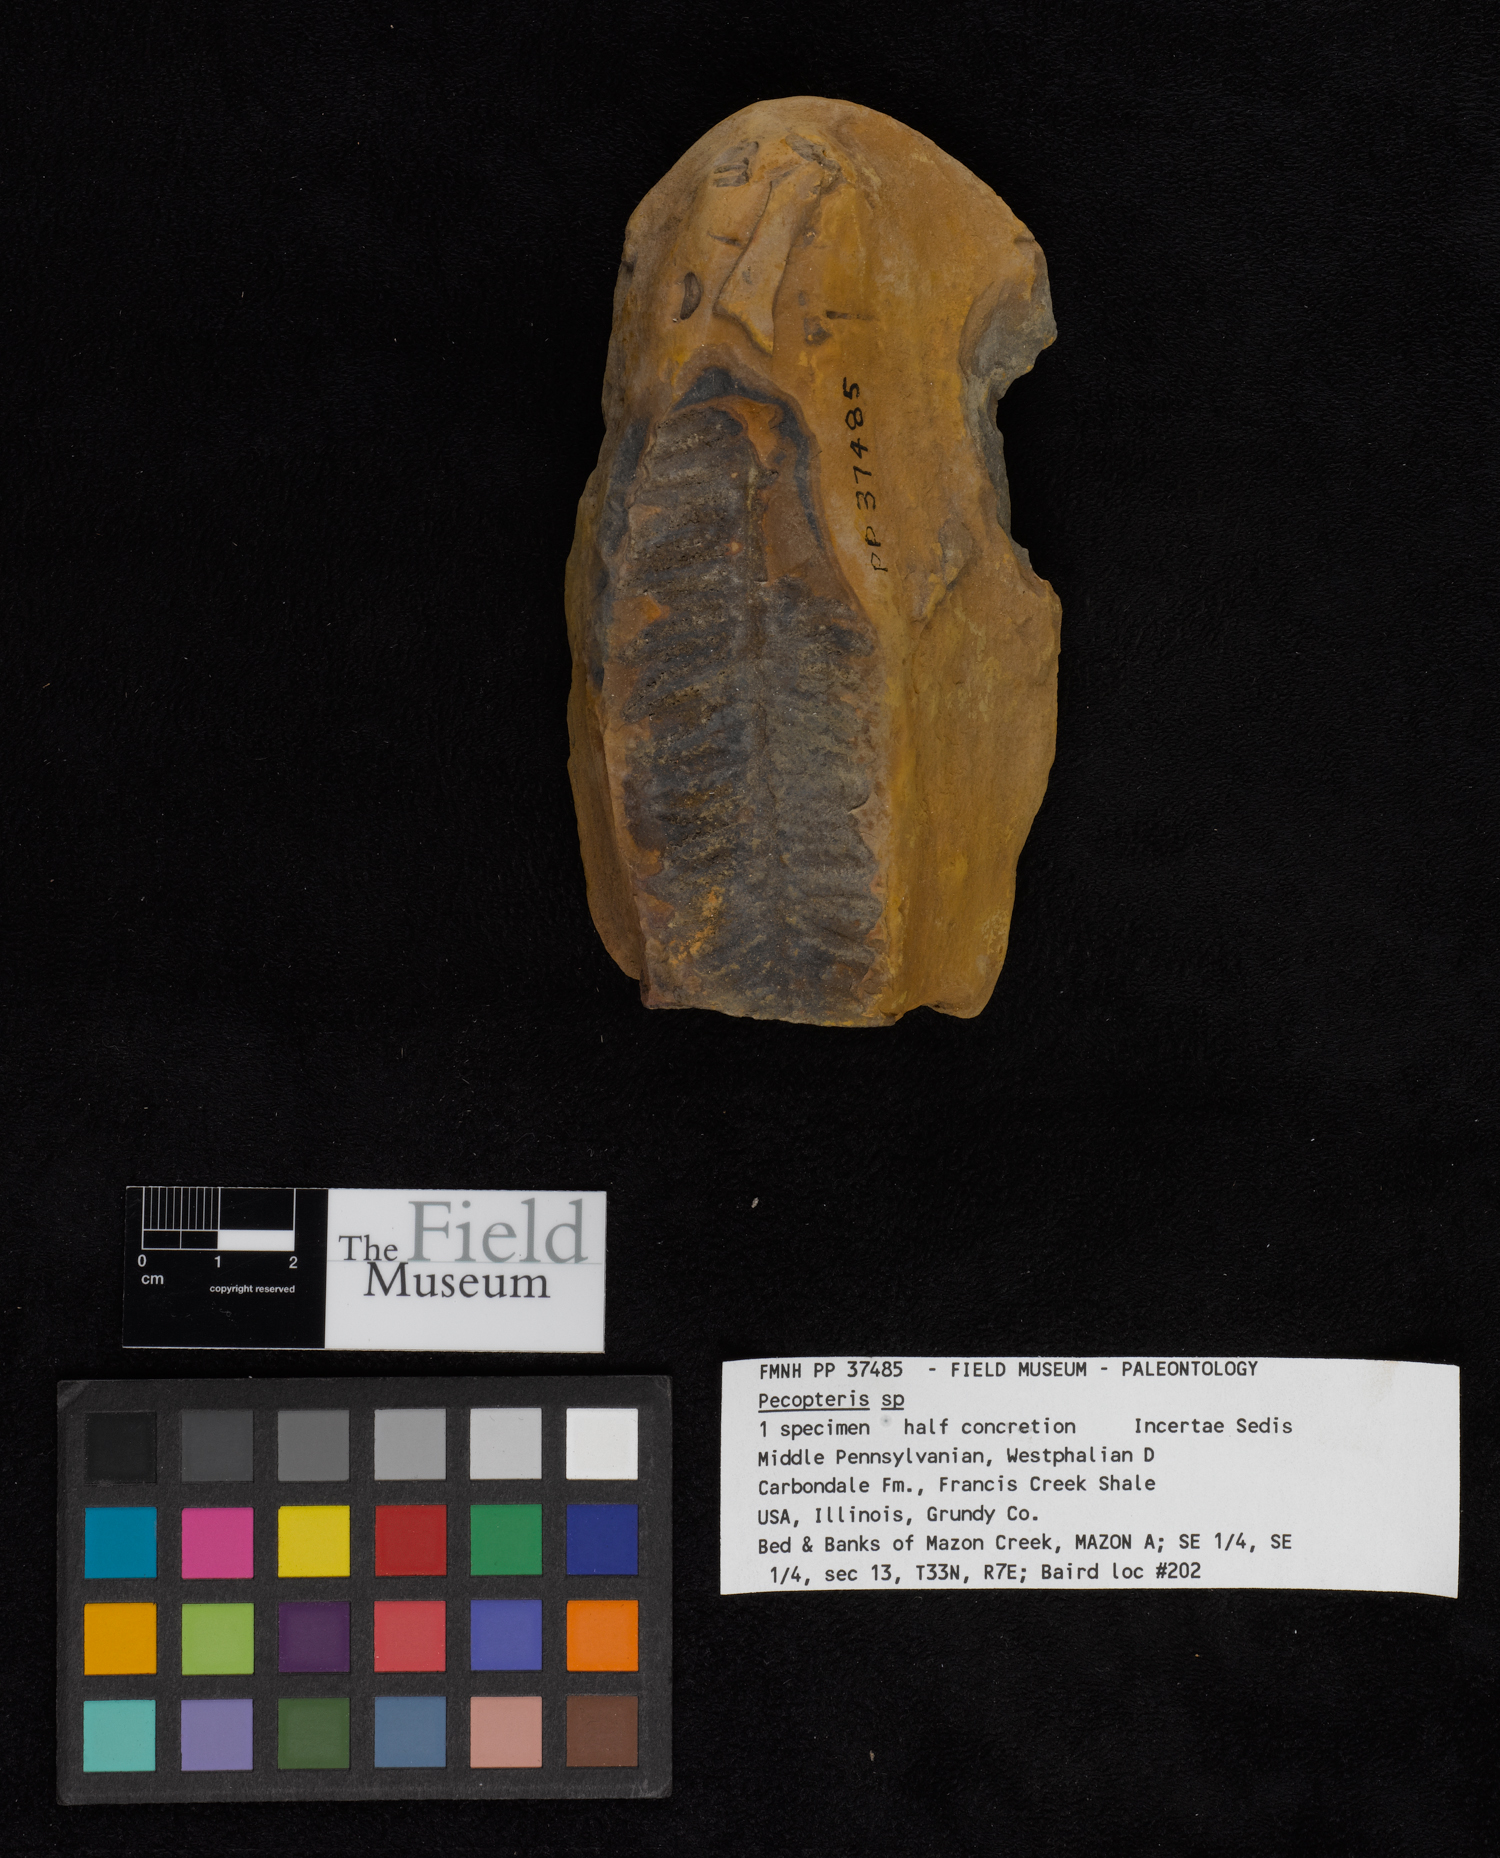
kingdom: Plantae
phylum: Tracheophyta
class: Polypodiopsida
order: Marattiales
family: Asterothecaceae
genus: Pecopteris
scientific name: Pecopteris
